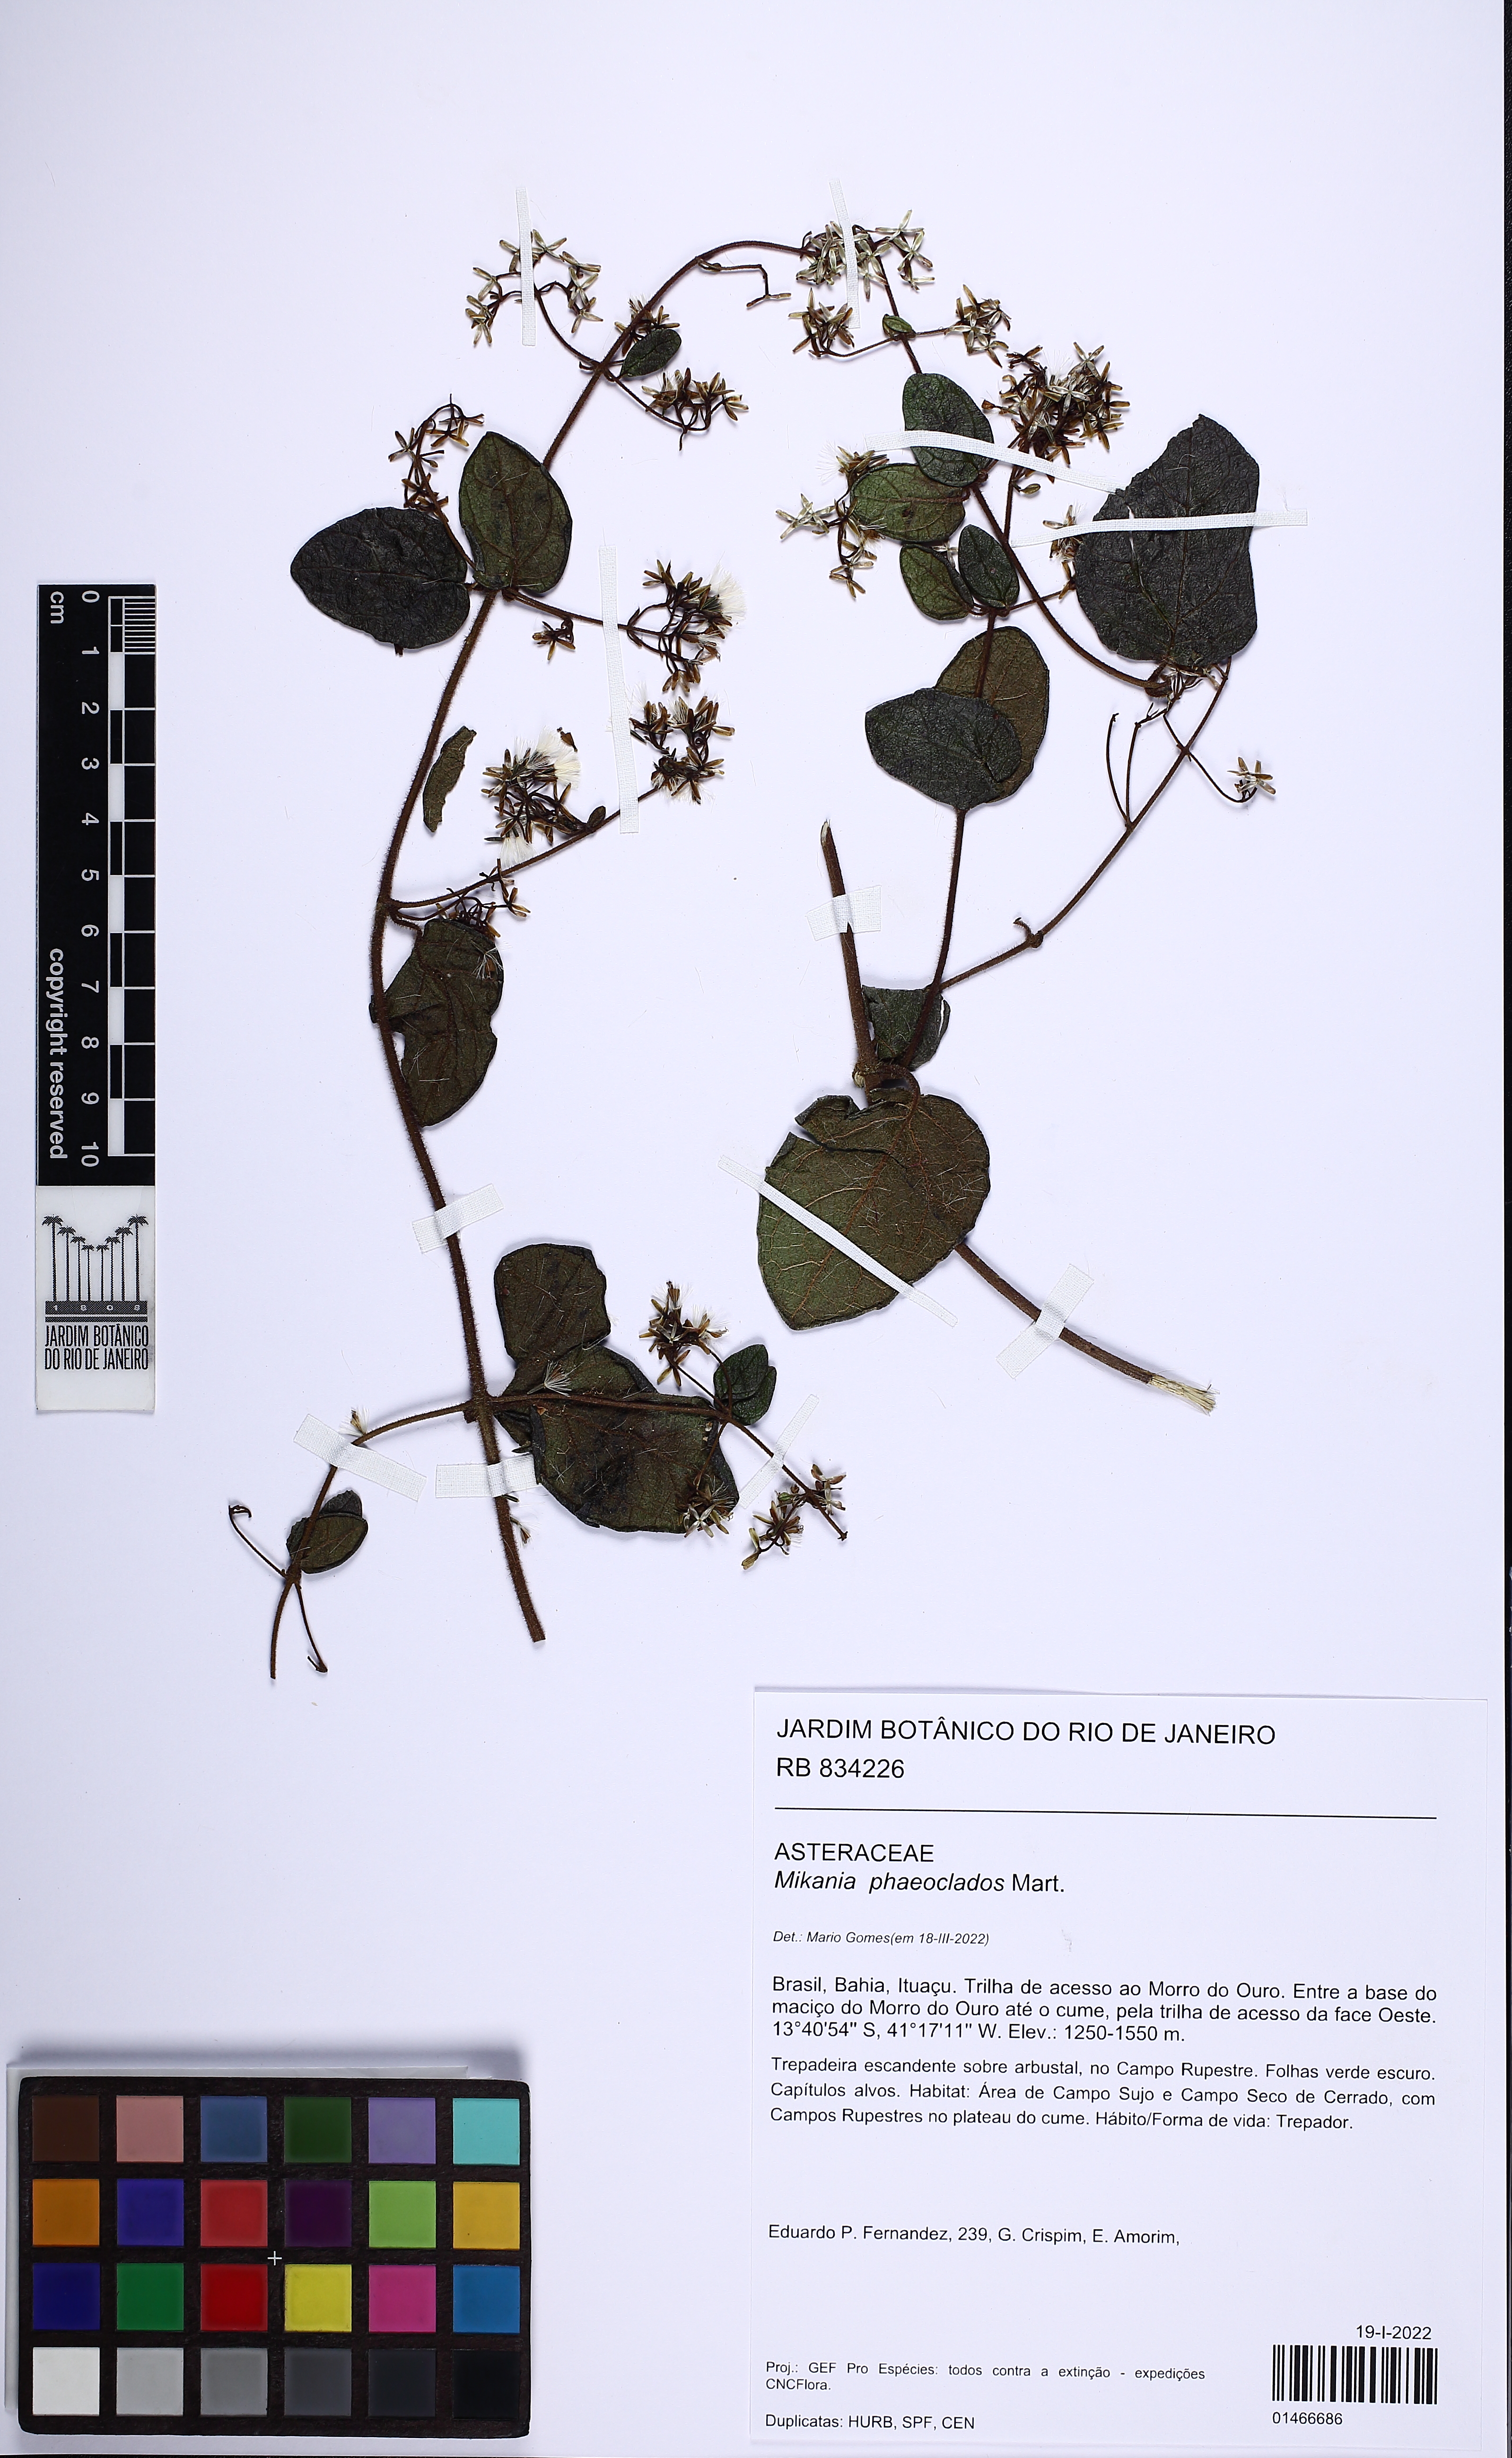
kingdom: Plantae
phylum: Tracheophyta
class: Magnoliopsida
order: Asterales
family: Asteraceae
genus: Mikania
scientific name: Mikania phaeoclados
